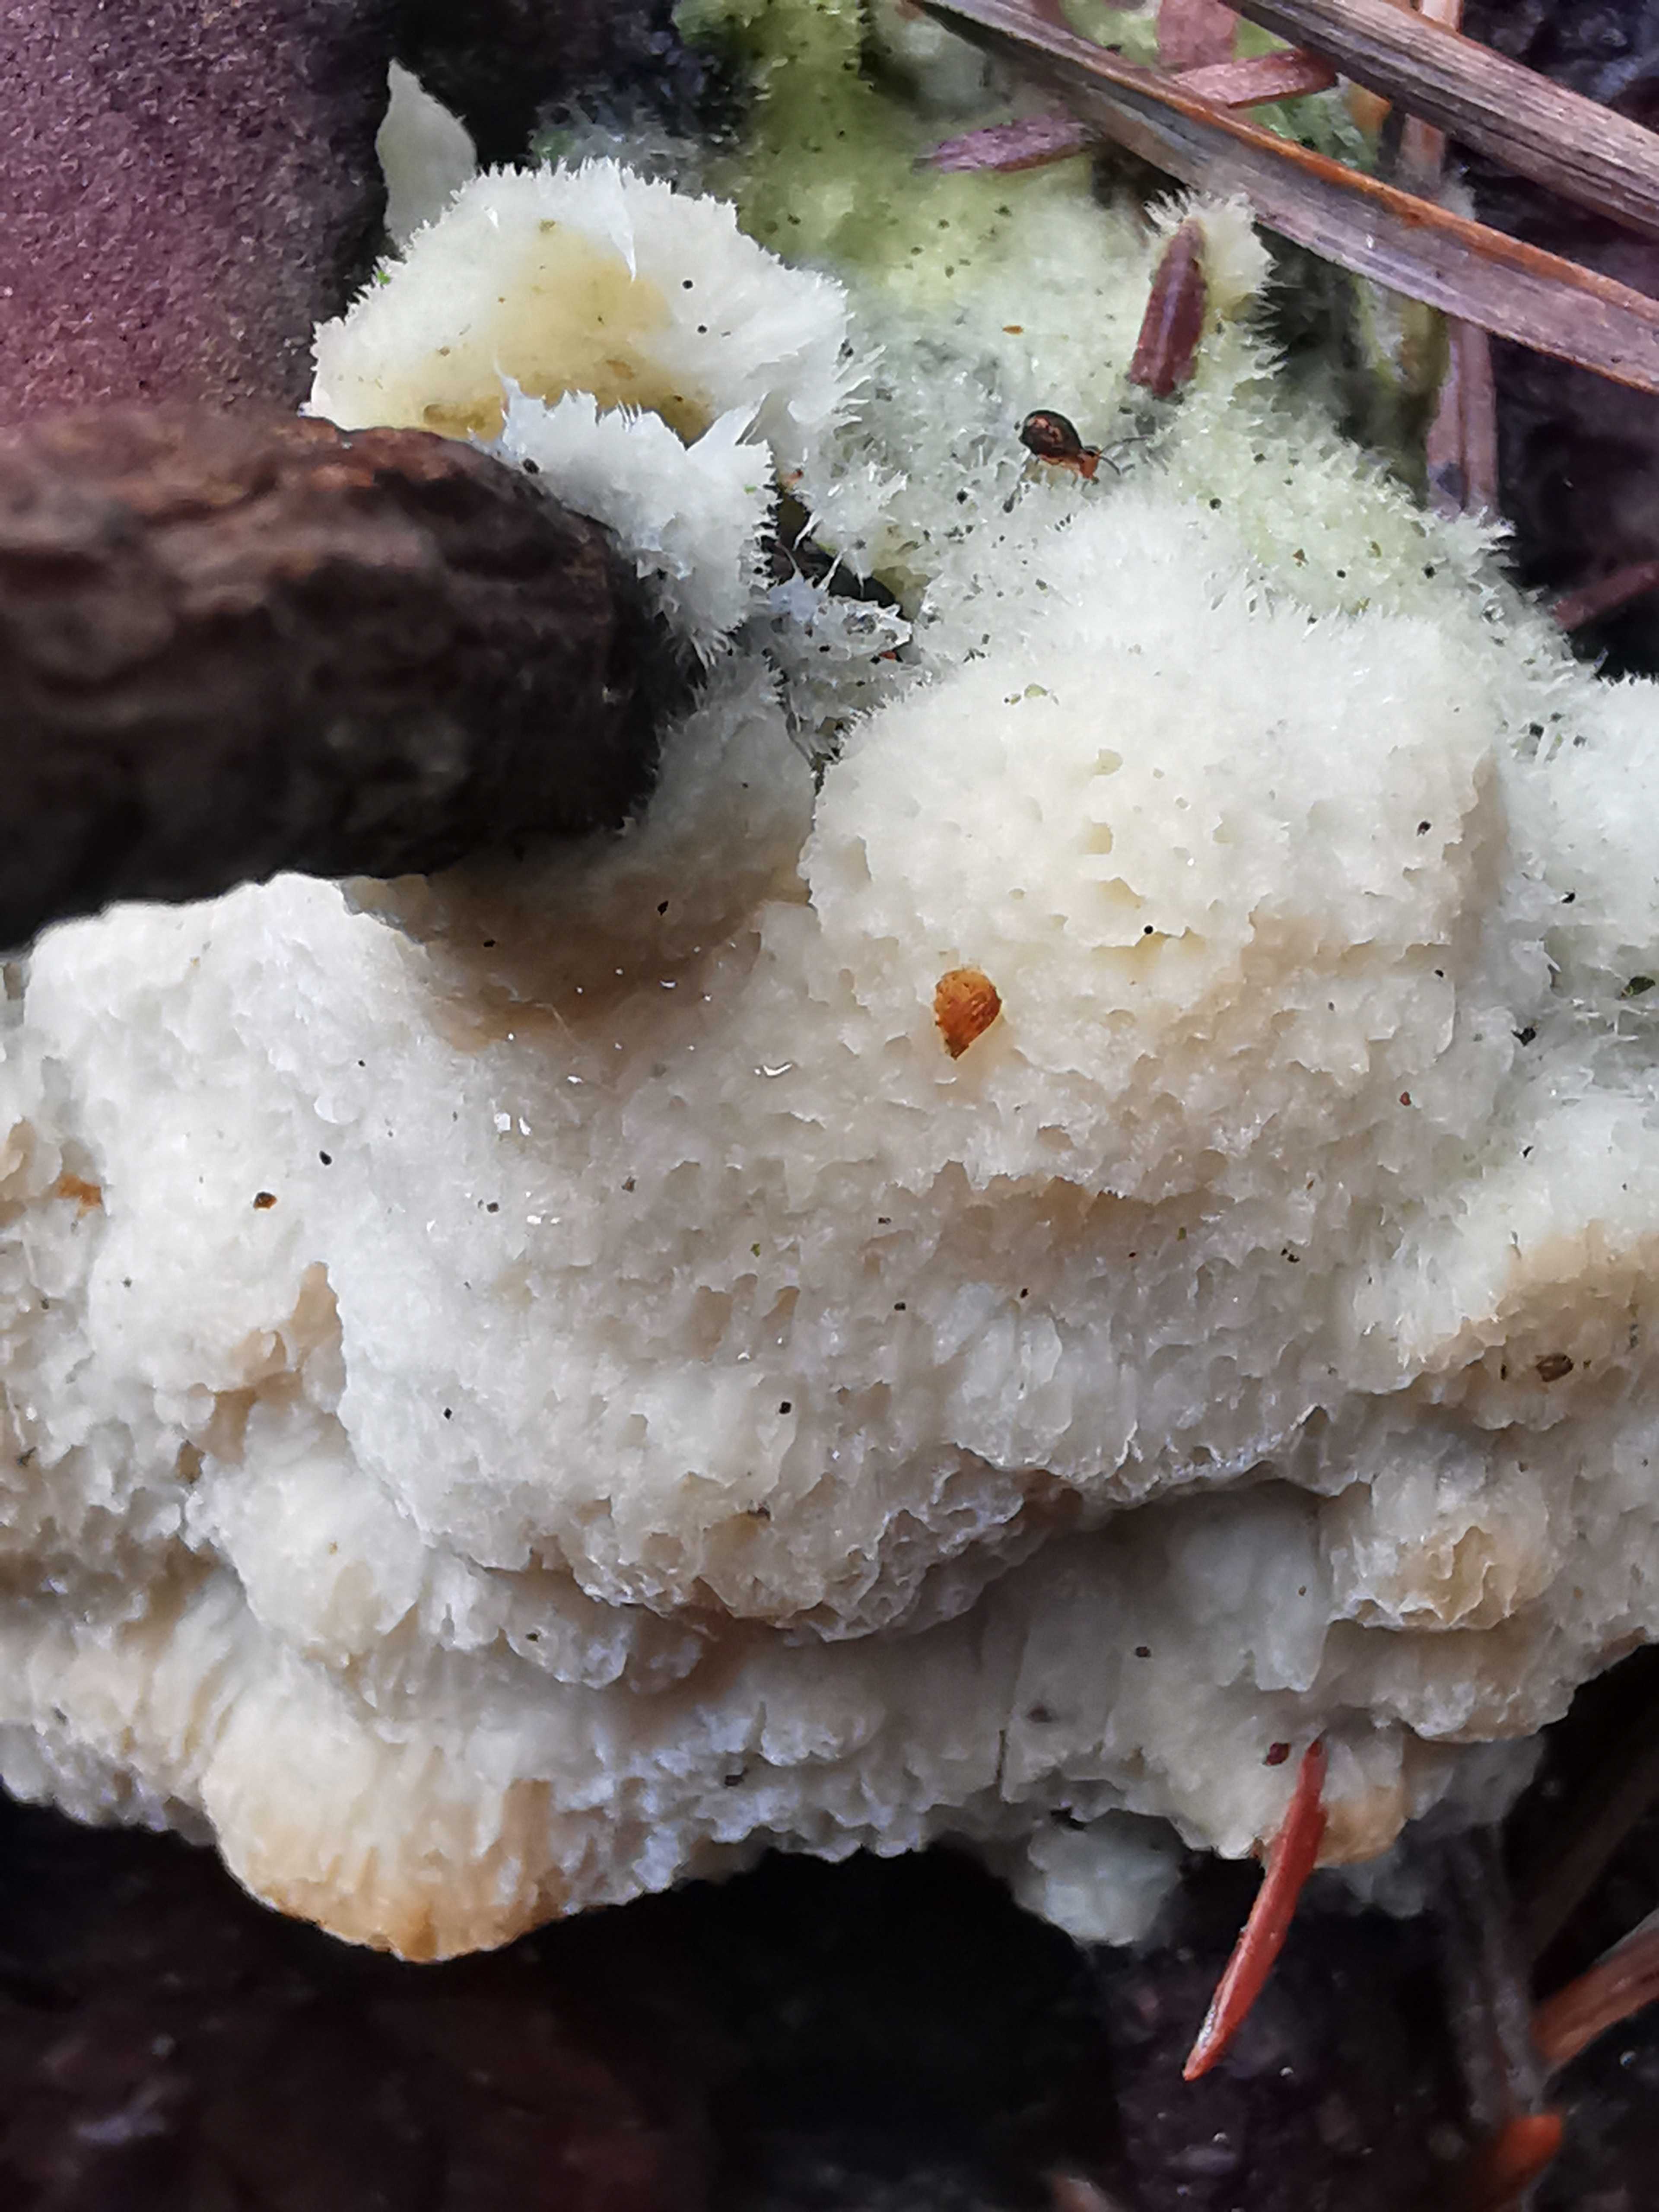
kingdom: Fungi
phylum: Basidiomycota
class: Agaricomycetes
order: Polyporales
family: Polyporaceae
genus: Diplomitoporus
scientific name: Diplomitoporus flavescens
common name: fyrre-elastikporesvamp
